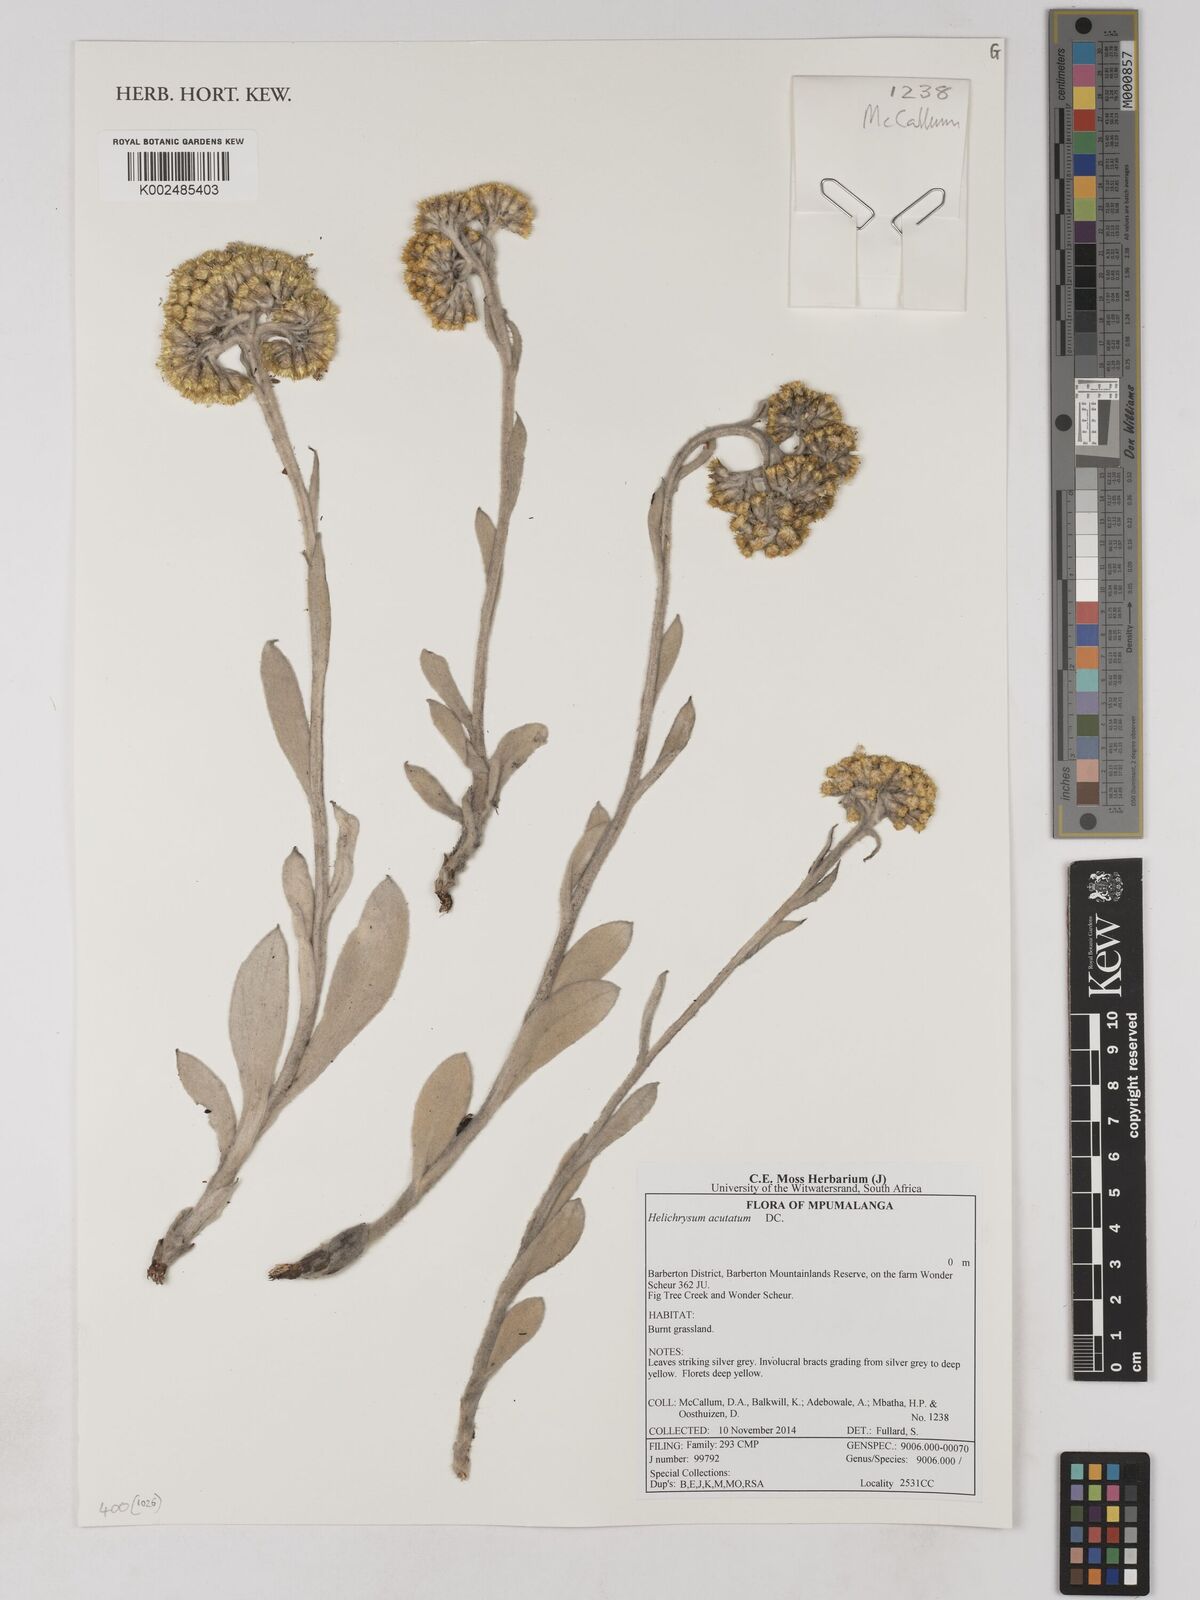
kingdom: Plantae
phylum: Tracheophyta
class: Magnoliopsida
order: Asterales
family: Asteraceae
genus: Helichrysum
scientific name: Helichrysum acutatum
